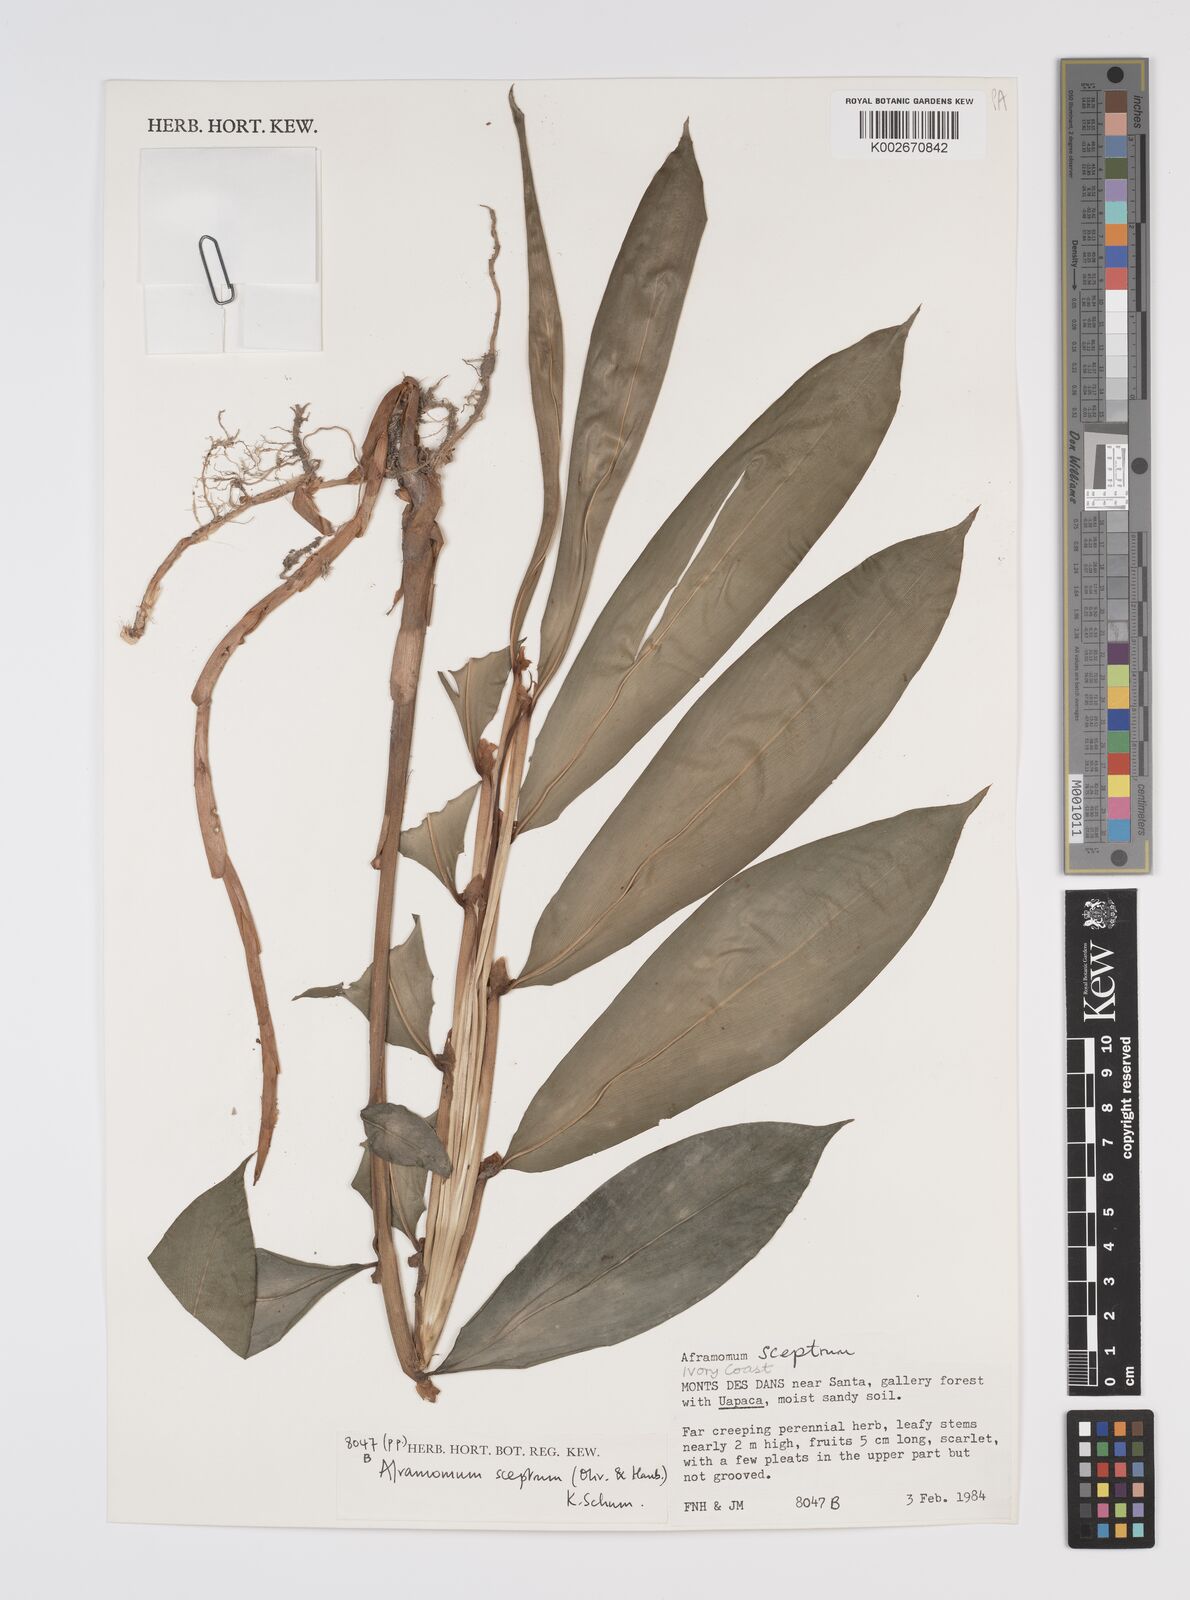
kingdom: Plantae
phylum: Tracheophyta
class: Liliopsida
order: Zingiberales
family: Zingiberaceae
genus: Aframomum
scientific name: Aframomum cereum
